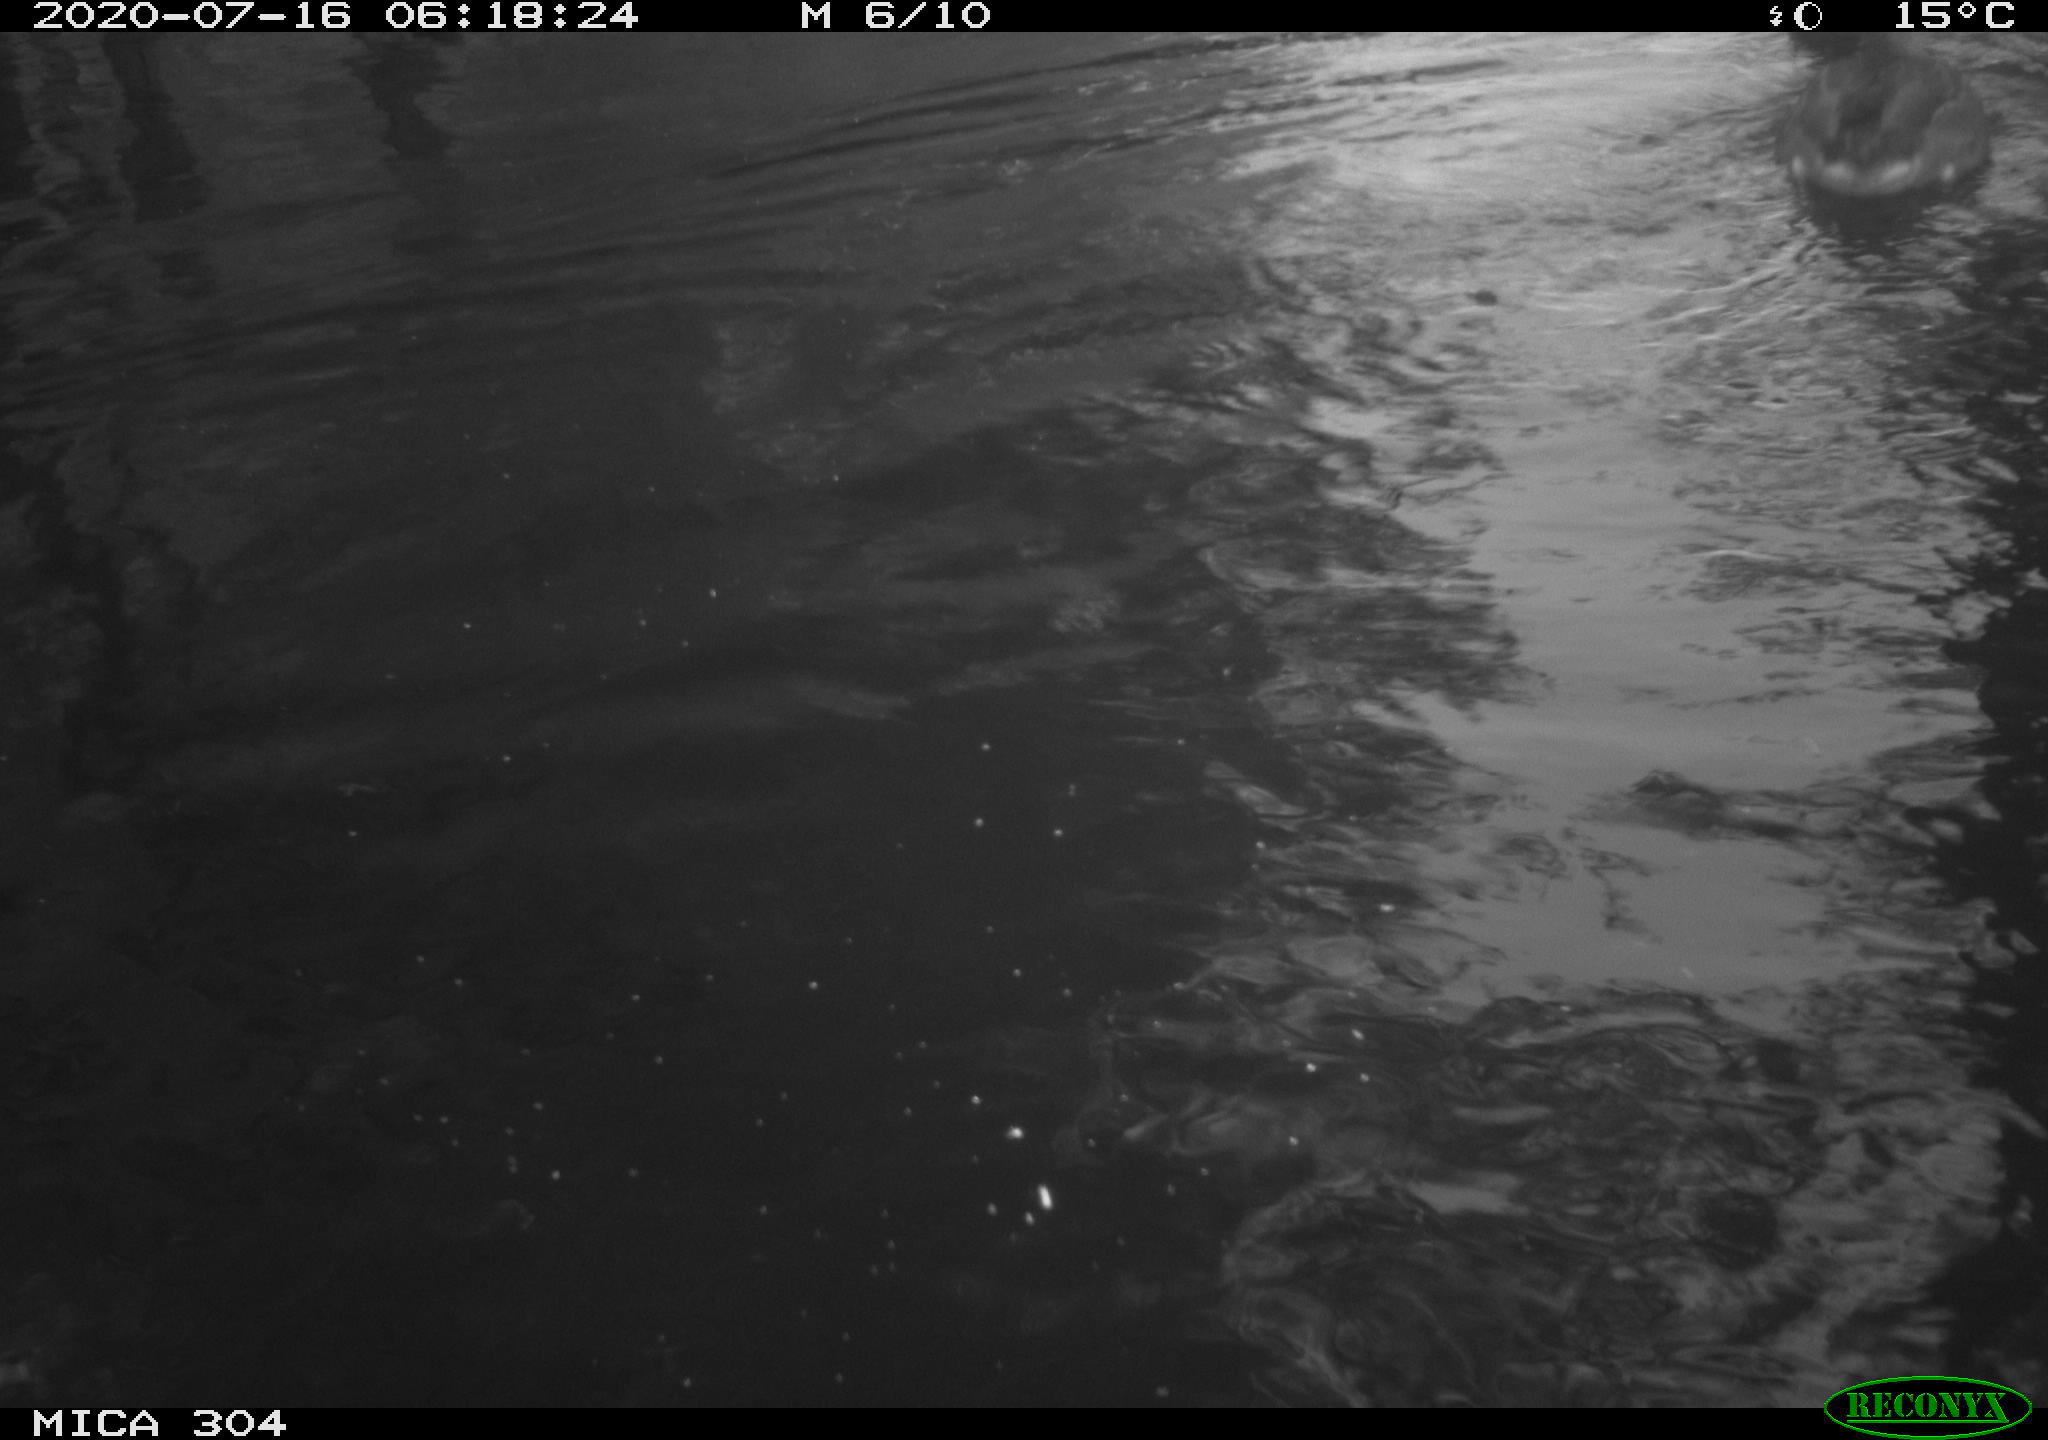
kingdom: Animalia
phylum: Chordata
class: Aves
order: Anseriformes
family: Anatidae
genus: Anas
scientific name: Anas platyrhynchos
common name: Mallard
